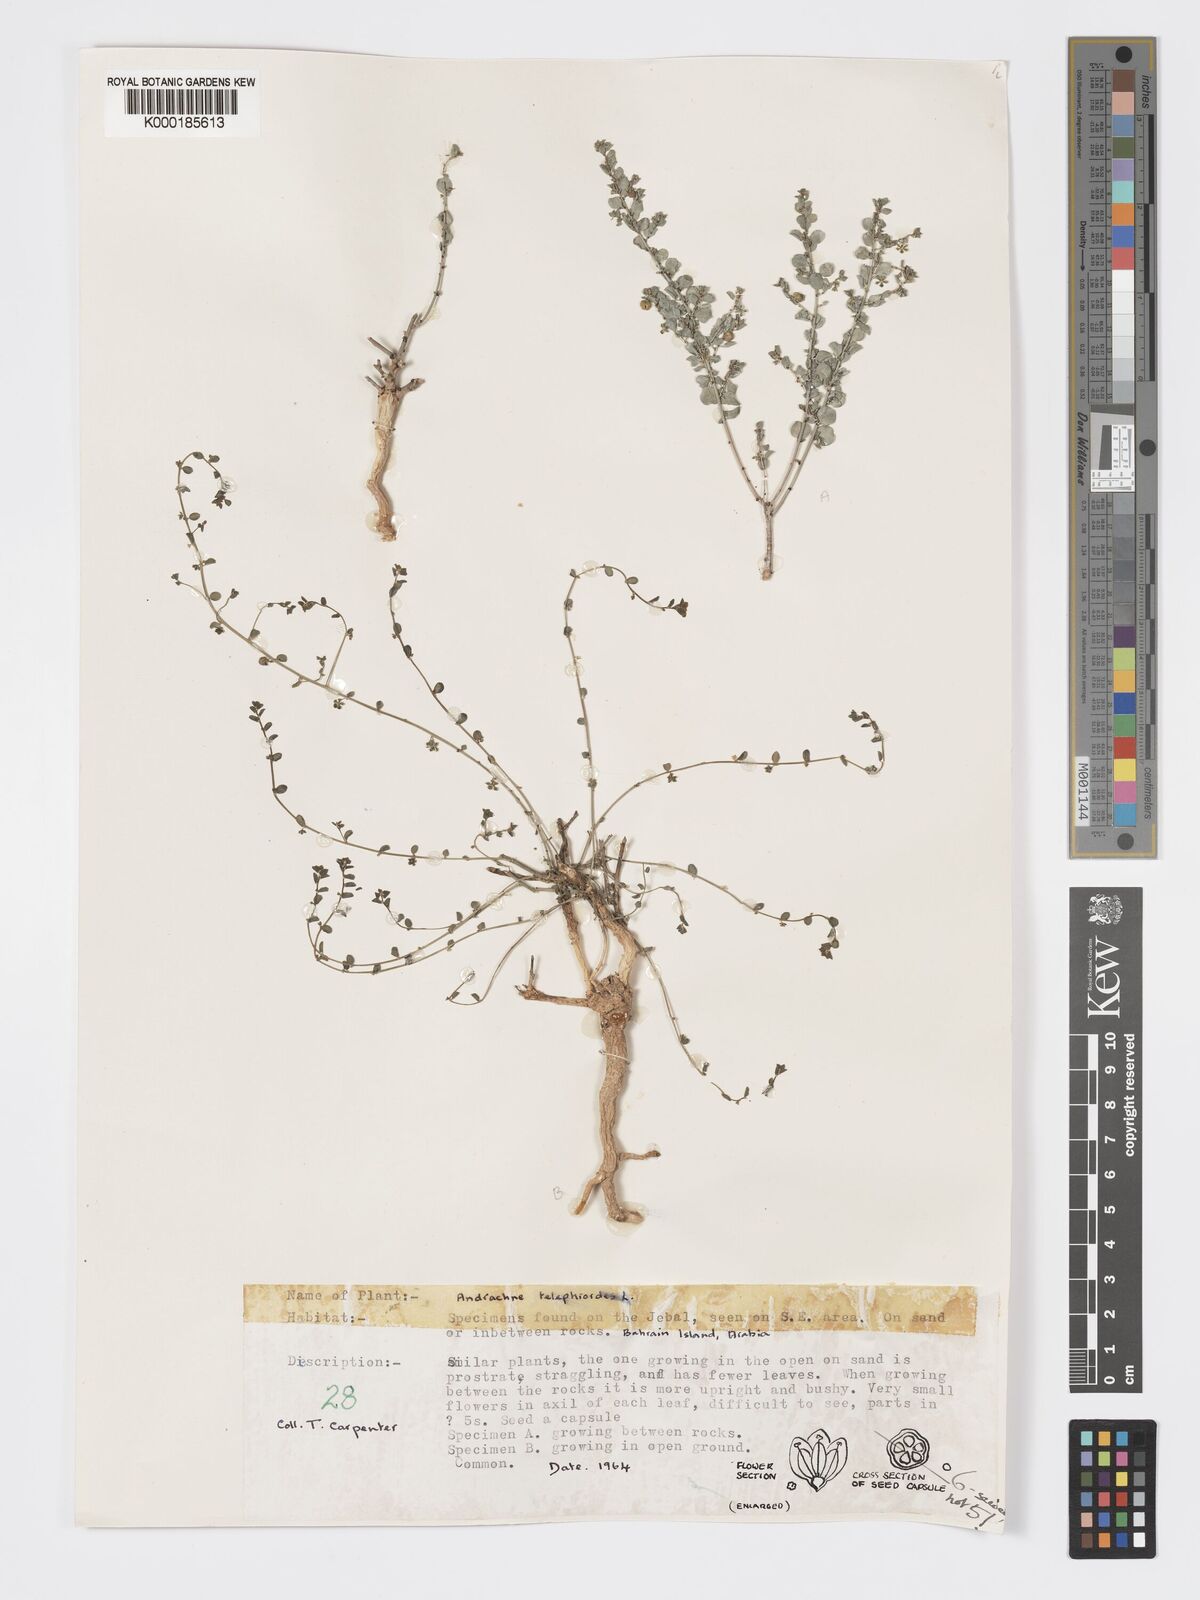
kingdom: Plantae
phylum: Tracheophyta
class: Magnoliopsida
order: Malpighiales
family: Phyllanthaceae
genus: Andrachne
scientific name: Andrachne telephioides
